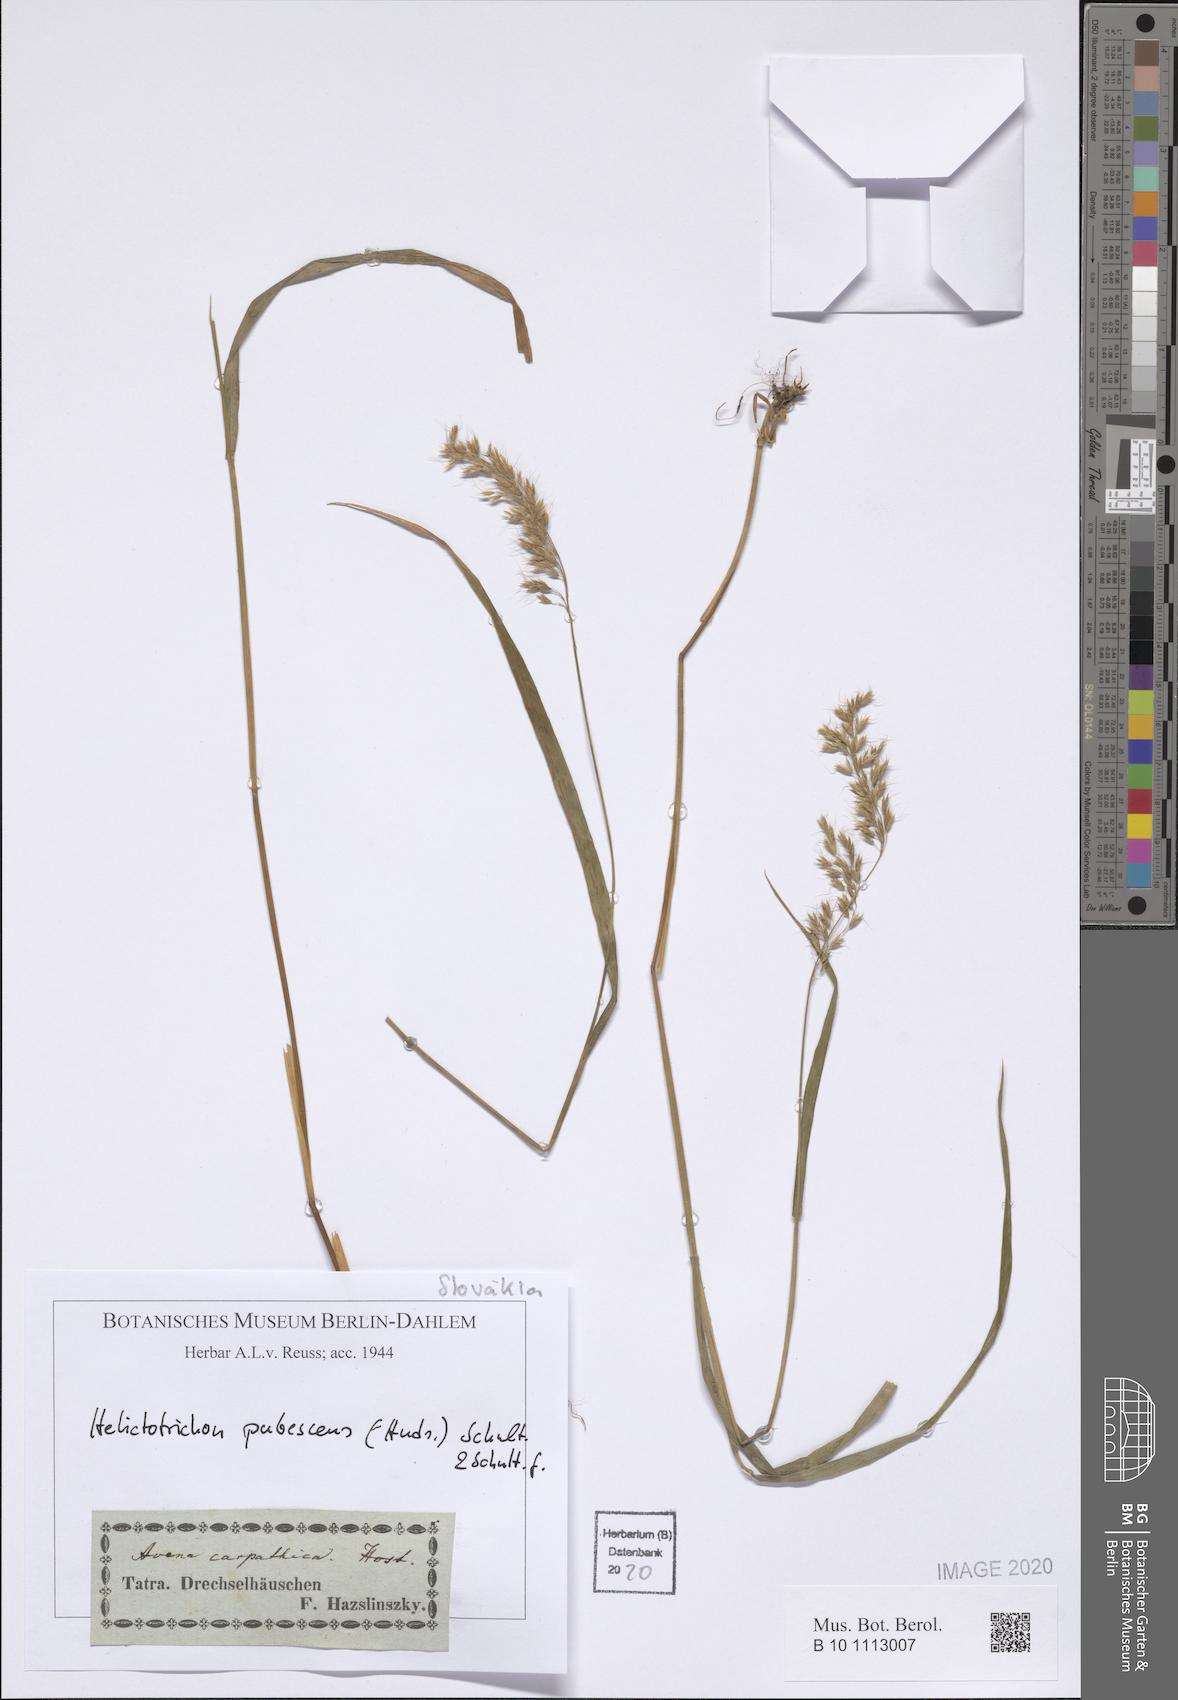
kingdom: Plantae
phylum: Tracheophyta
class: Liliopsida
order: Poales
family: Poaceae
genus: Avenula
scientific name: Avenula pubescens
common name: Downy alpine oatgrass
